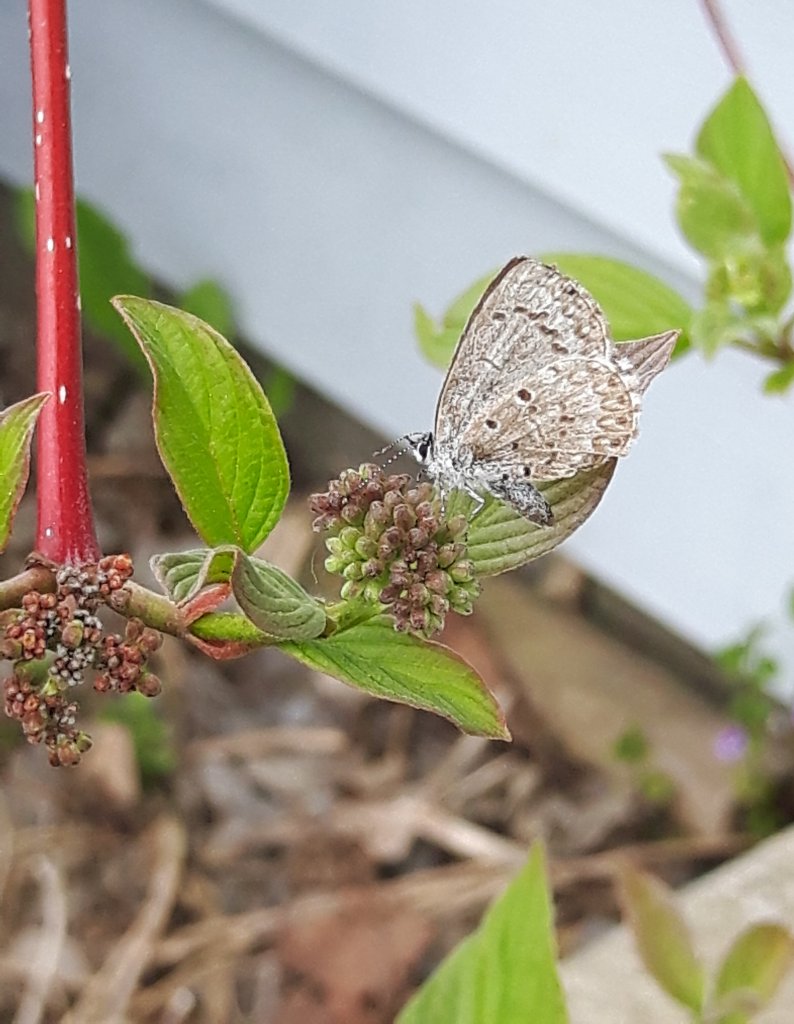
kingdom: Animalia
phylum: Arthropoda
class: Insecta
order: Lepidoptera
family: Lycaenidae
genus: Celastrina
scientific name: Celastrina lucia
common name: Northern Spring Azure
